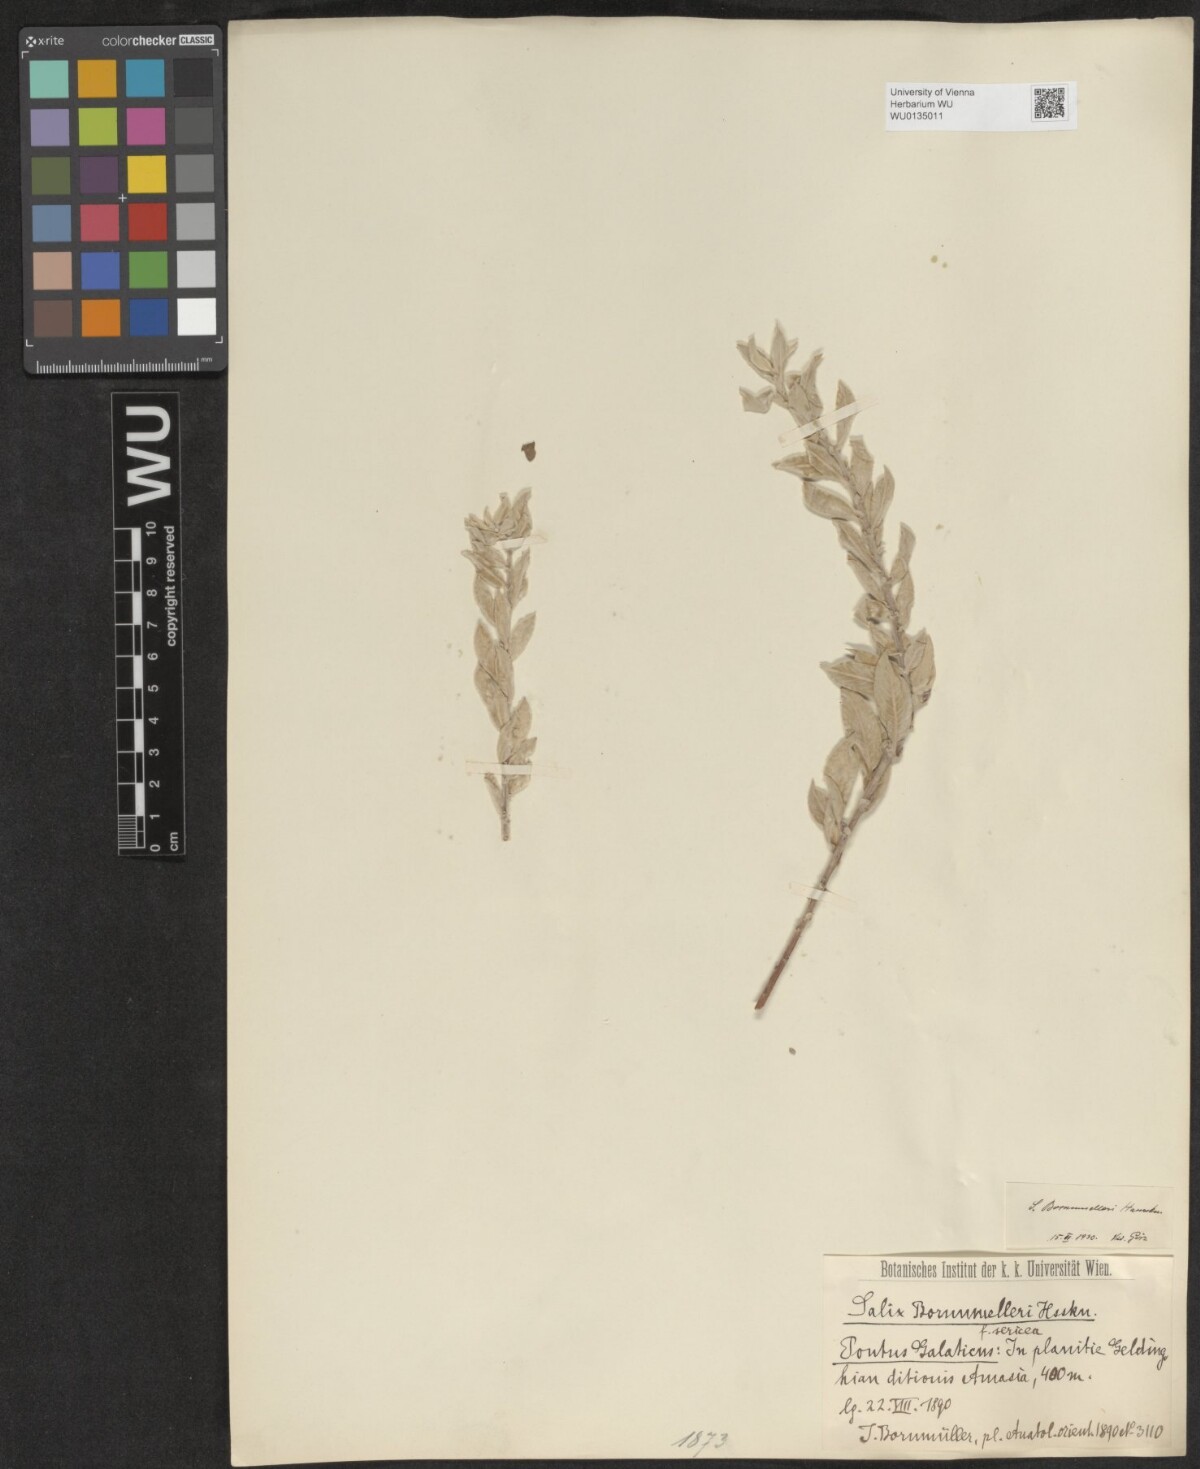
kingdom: Plantae
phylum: Tracheophyta
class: Magnoliopsida
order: Malpighiales
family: Salicaceae
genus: Salix
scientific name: Salix triandra
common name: Almond willow
